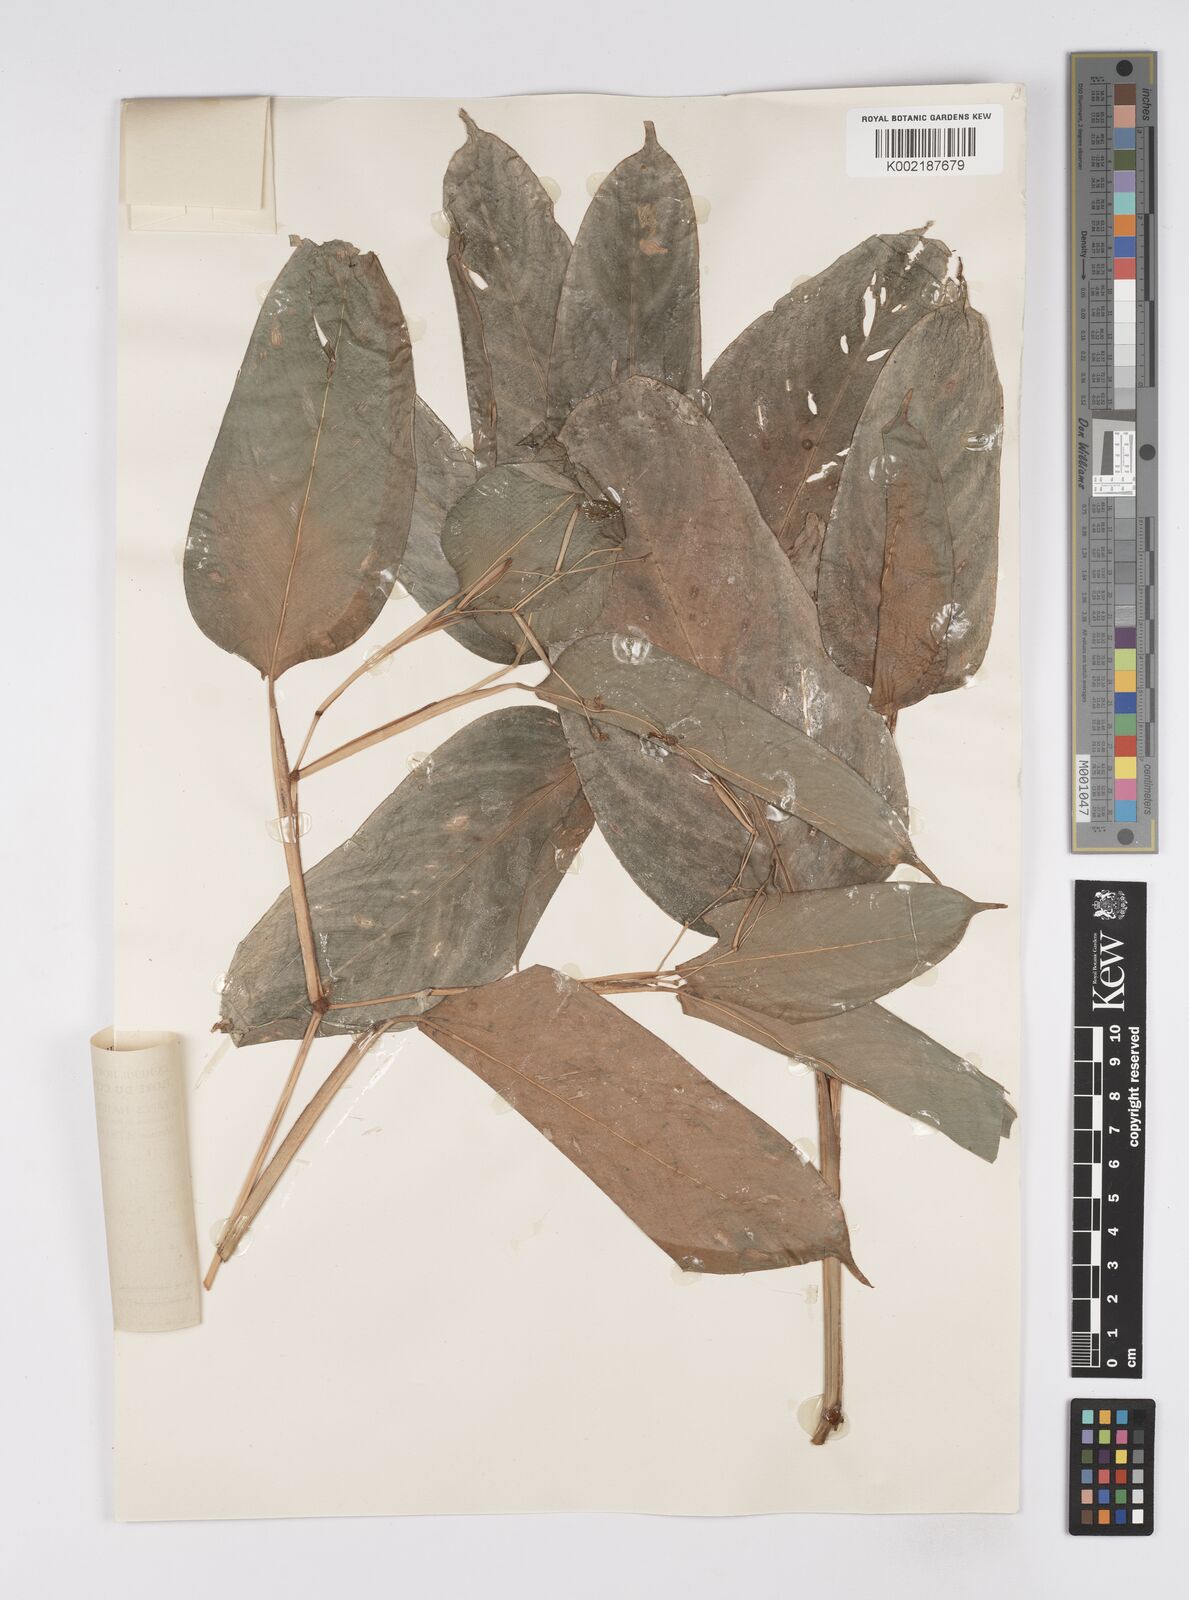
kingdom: Plantae
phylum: Tracheophyta
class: Liliopsida
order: Zingiberales
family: Marantaceae
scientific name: Marantaceae
